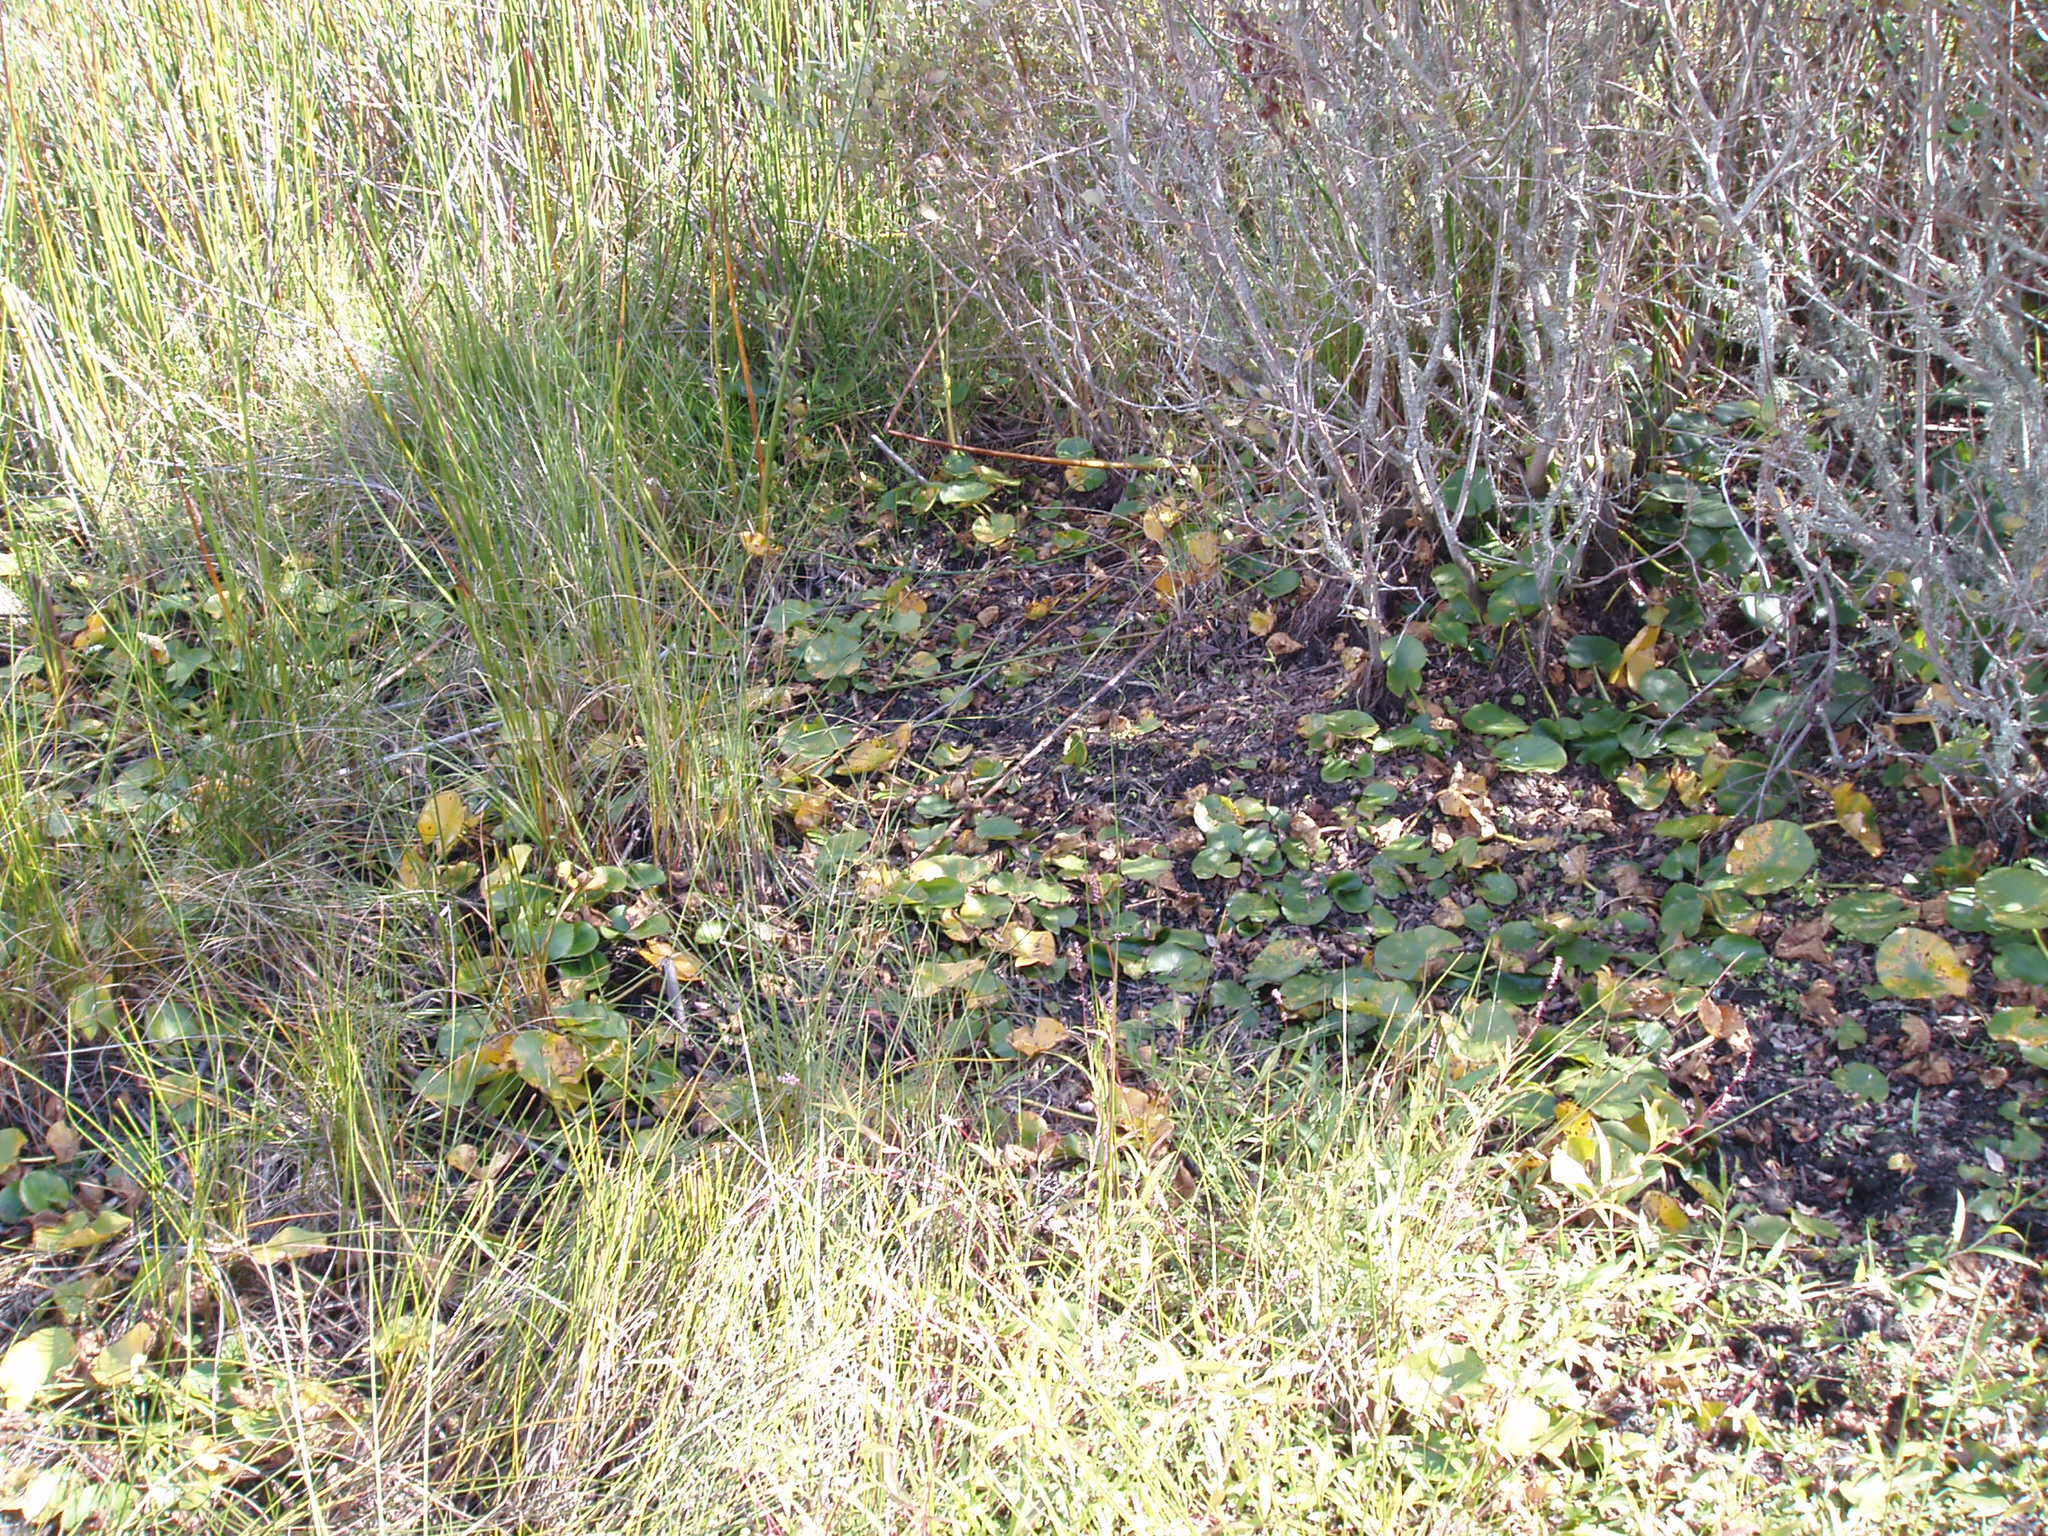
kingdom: Plantae
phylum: Tracheophyta
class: Magnoliopsida
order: Nymphaeales
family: Nymphaeaceae
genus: Nymphaea
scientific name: Nymphaea alba
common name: White water-lily
